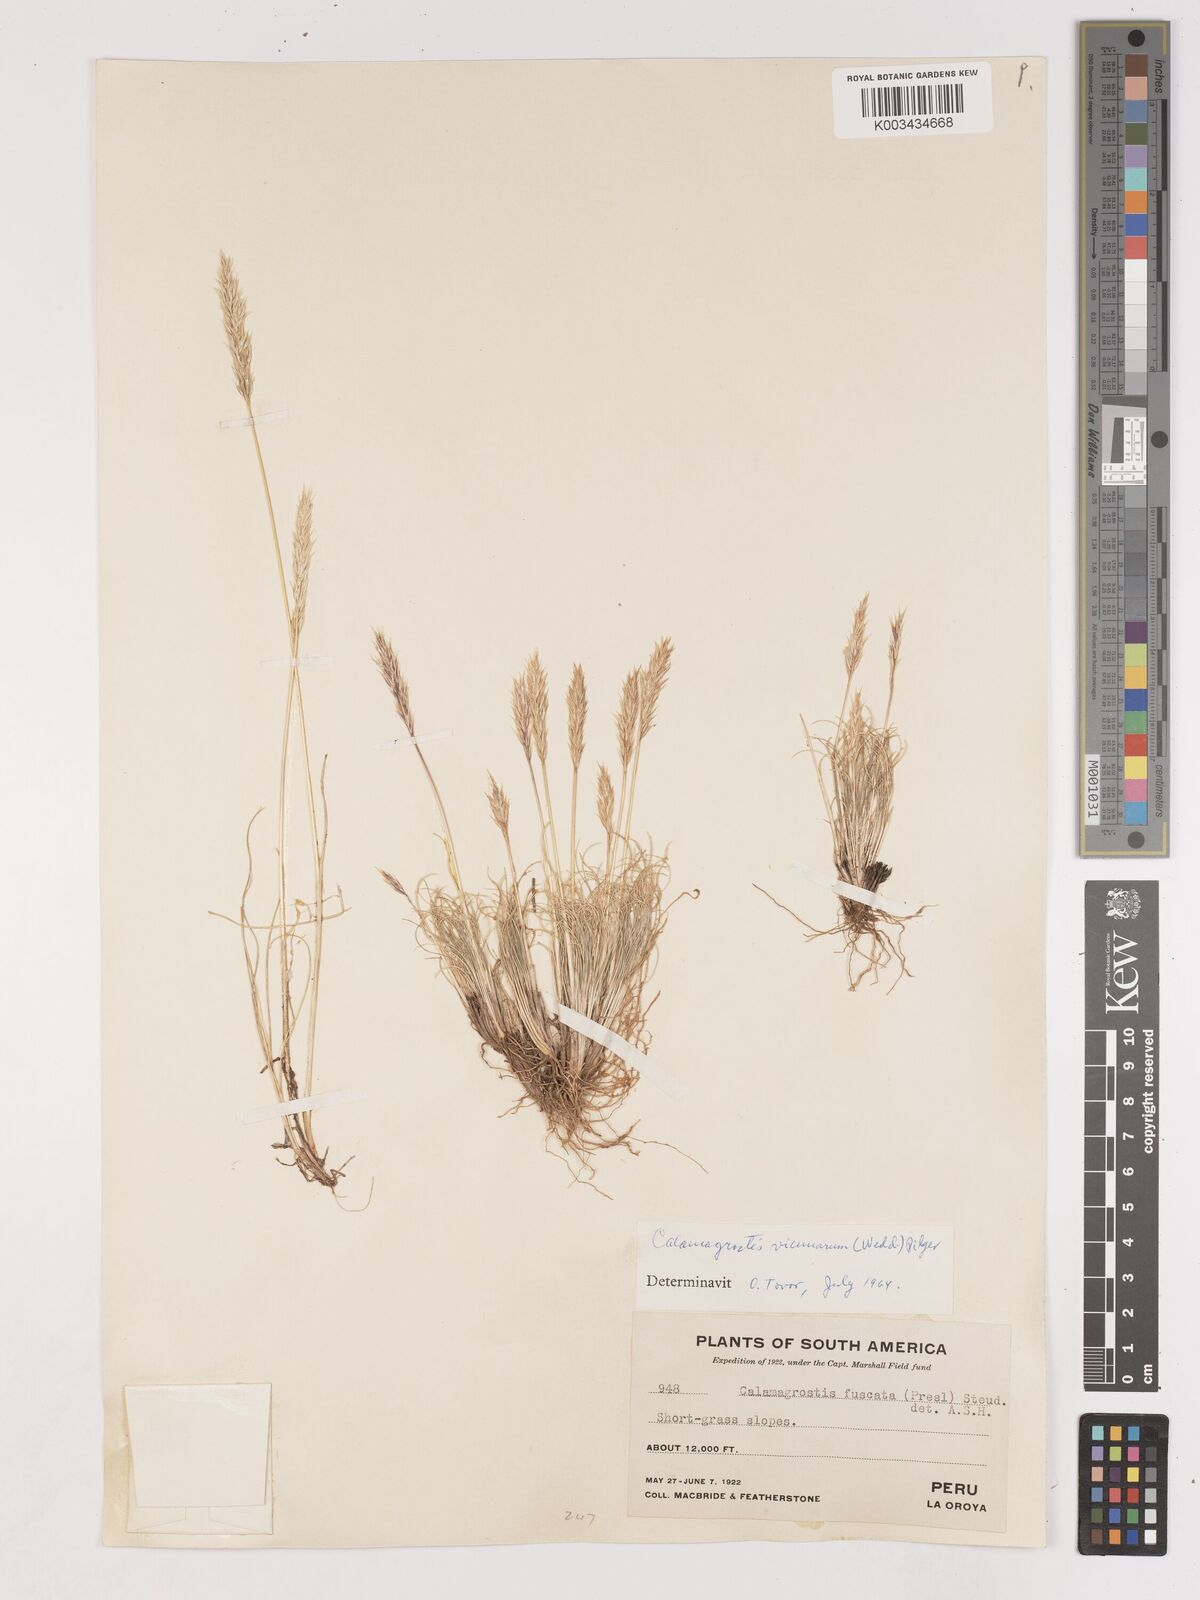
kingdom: Plantae
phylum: Tracheophyta
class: Liliopsida
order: Poales
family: Poaceae
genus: Cinnagrostis
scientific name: Cinnagrostis vicunarum
